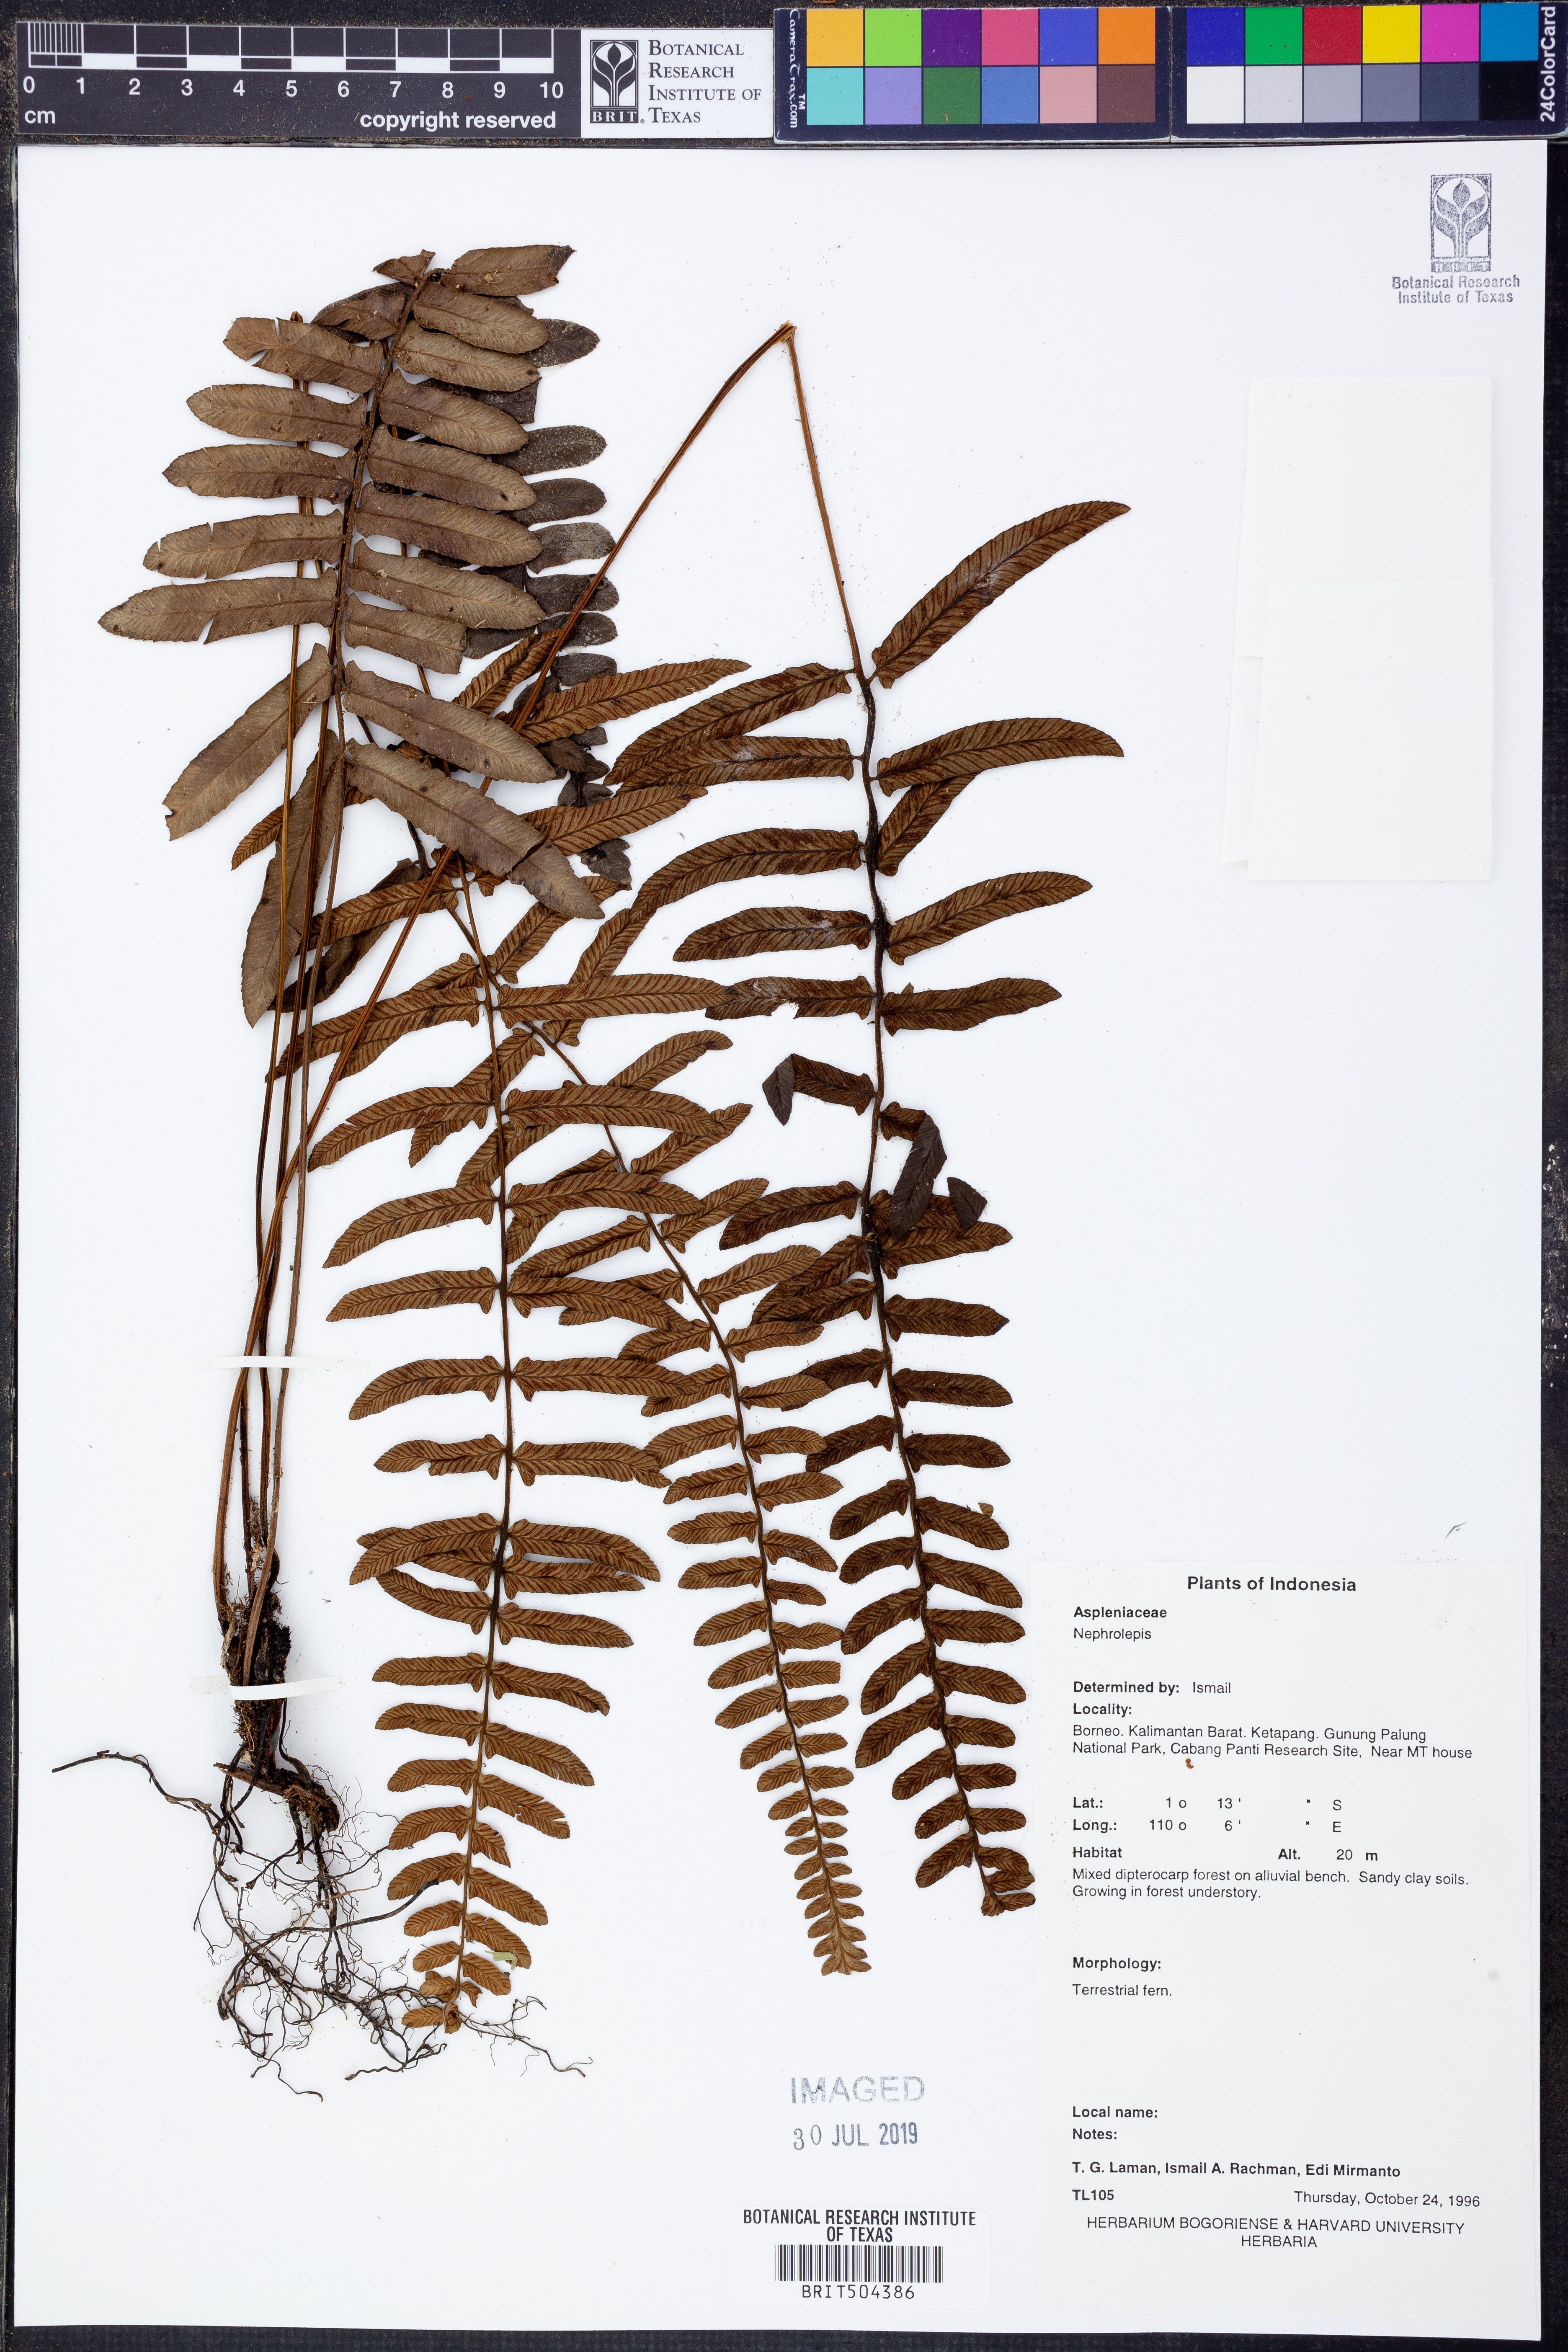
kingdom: Plantae
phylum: Tracheophyta
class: Polypodiopsida
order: Polypodiales
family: Nephrolepidaceae
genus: Nephrolepis
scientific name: Nephrolepis
